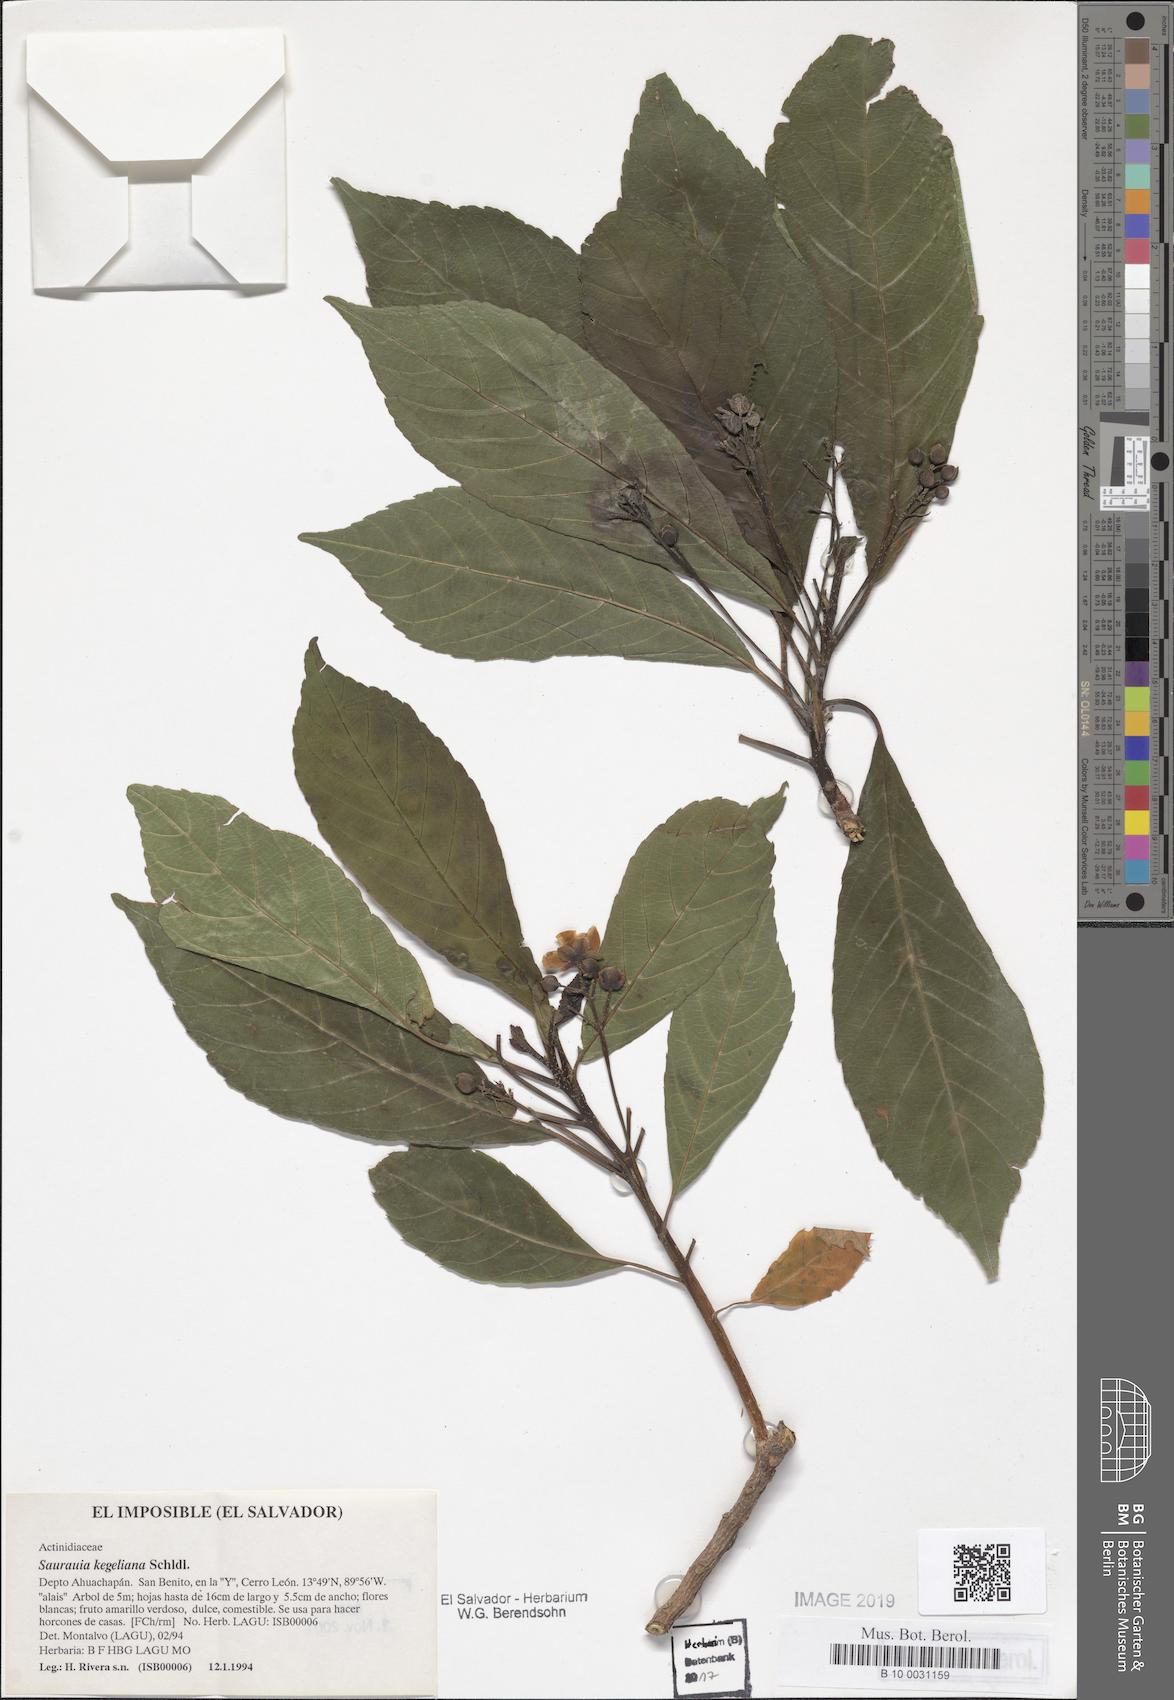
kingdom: Plantae
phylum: Tracheophyta
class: Magnoliopsida
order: Ericales
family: Actinidiaceae
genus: Saurauia
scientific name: Saurauia kegeliana
